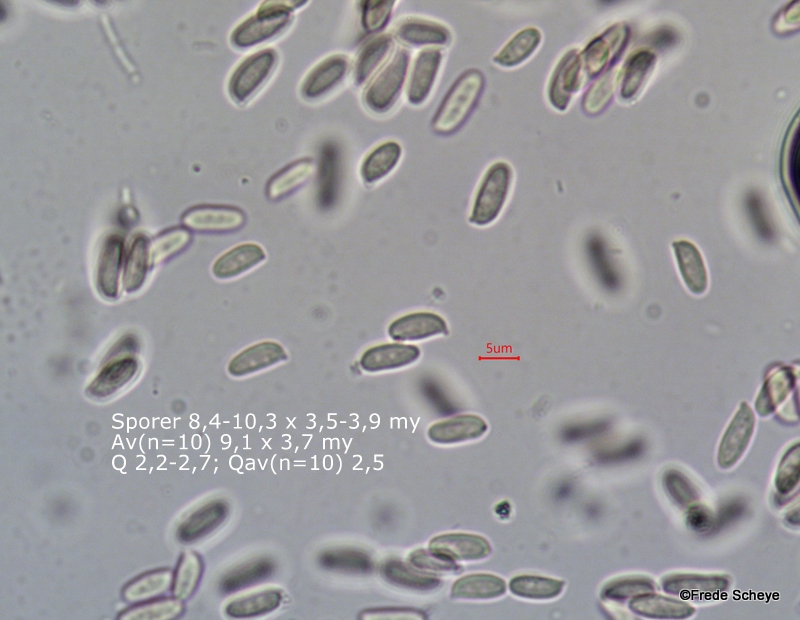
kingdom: Fungi
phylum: Basidiomycota
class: Agaricomycetes
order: Agaricales
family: Physalacriaceae
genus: Flammulina
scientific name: Flammulina velutipes
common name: gul fløjlsfod
